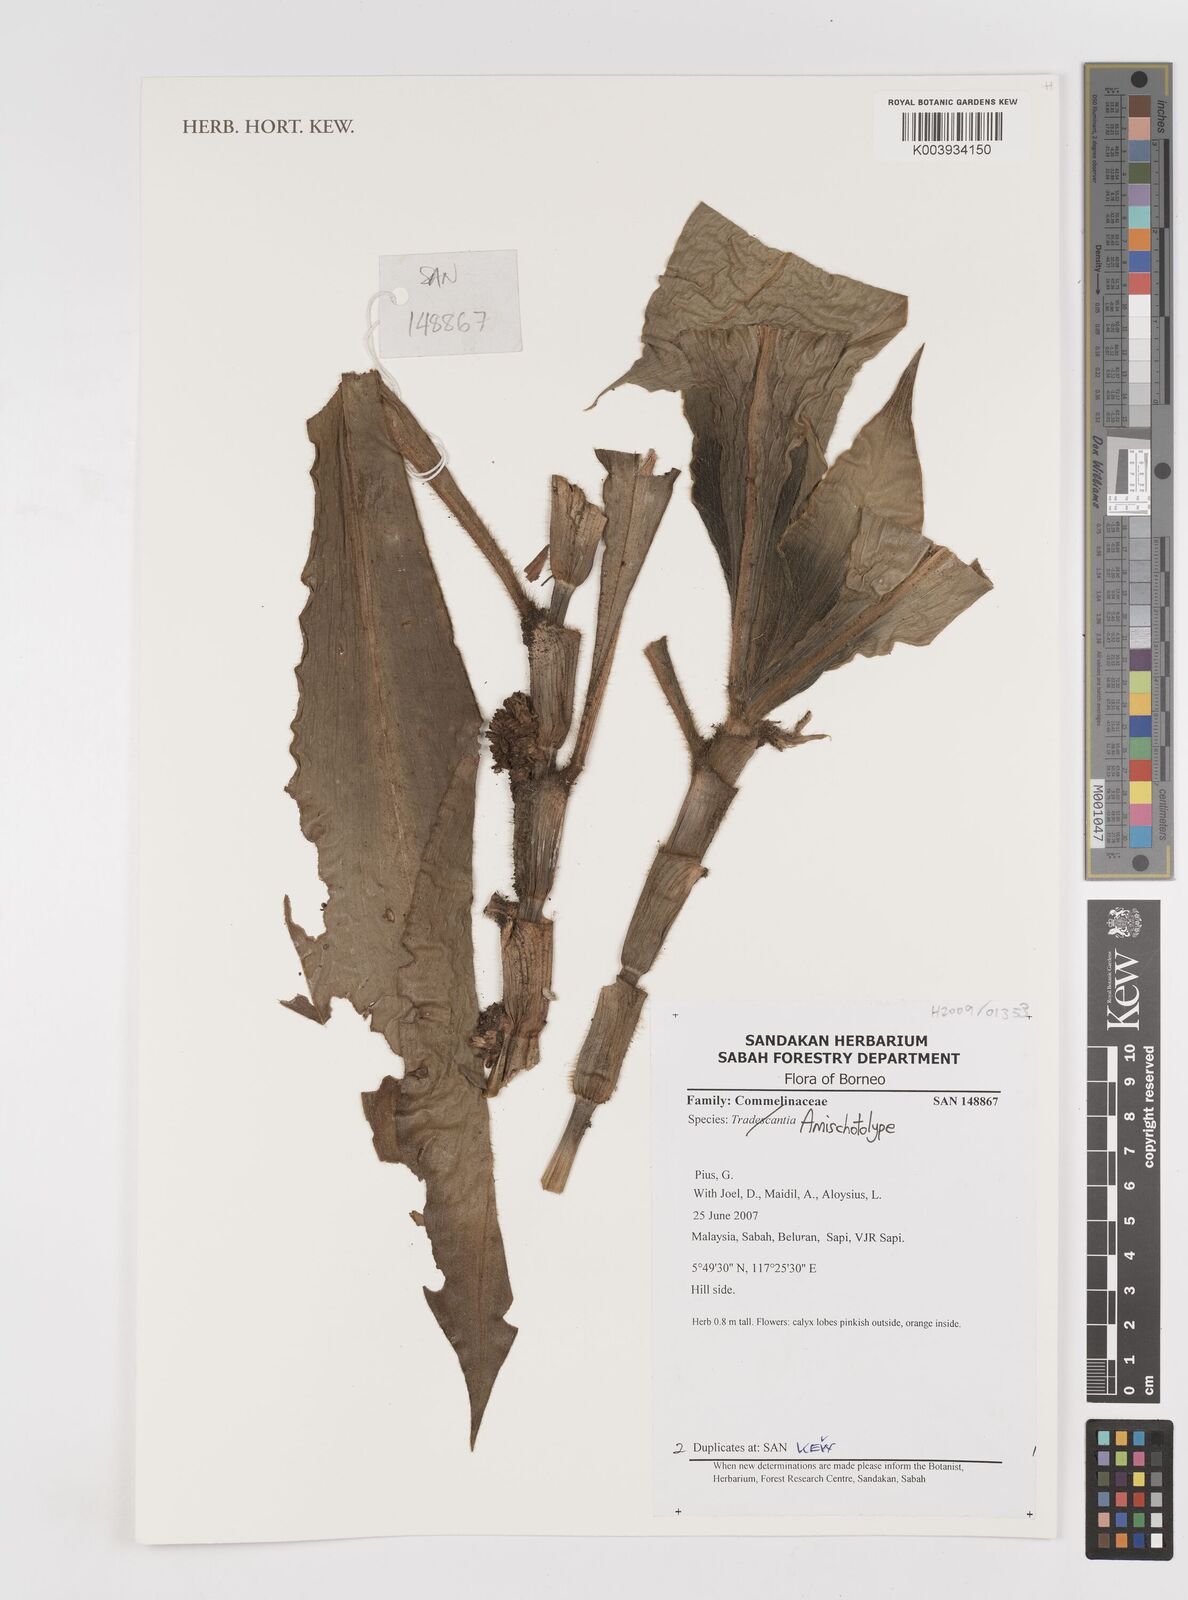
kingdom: Plantae
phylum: Tracheophyta
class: Liliopsida
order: Commelinales
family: Commelinaceae
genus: Amischotolype
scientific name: Amischotolype
